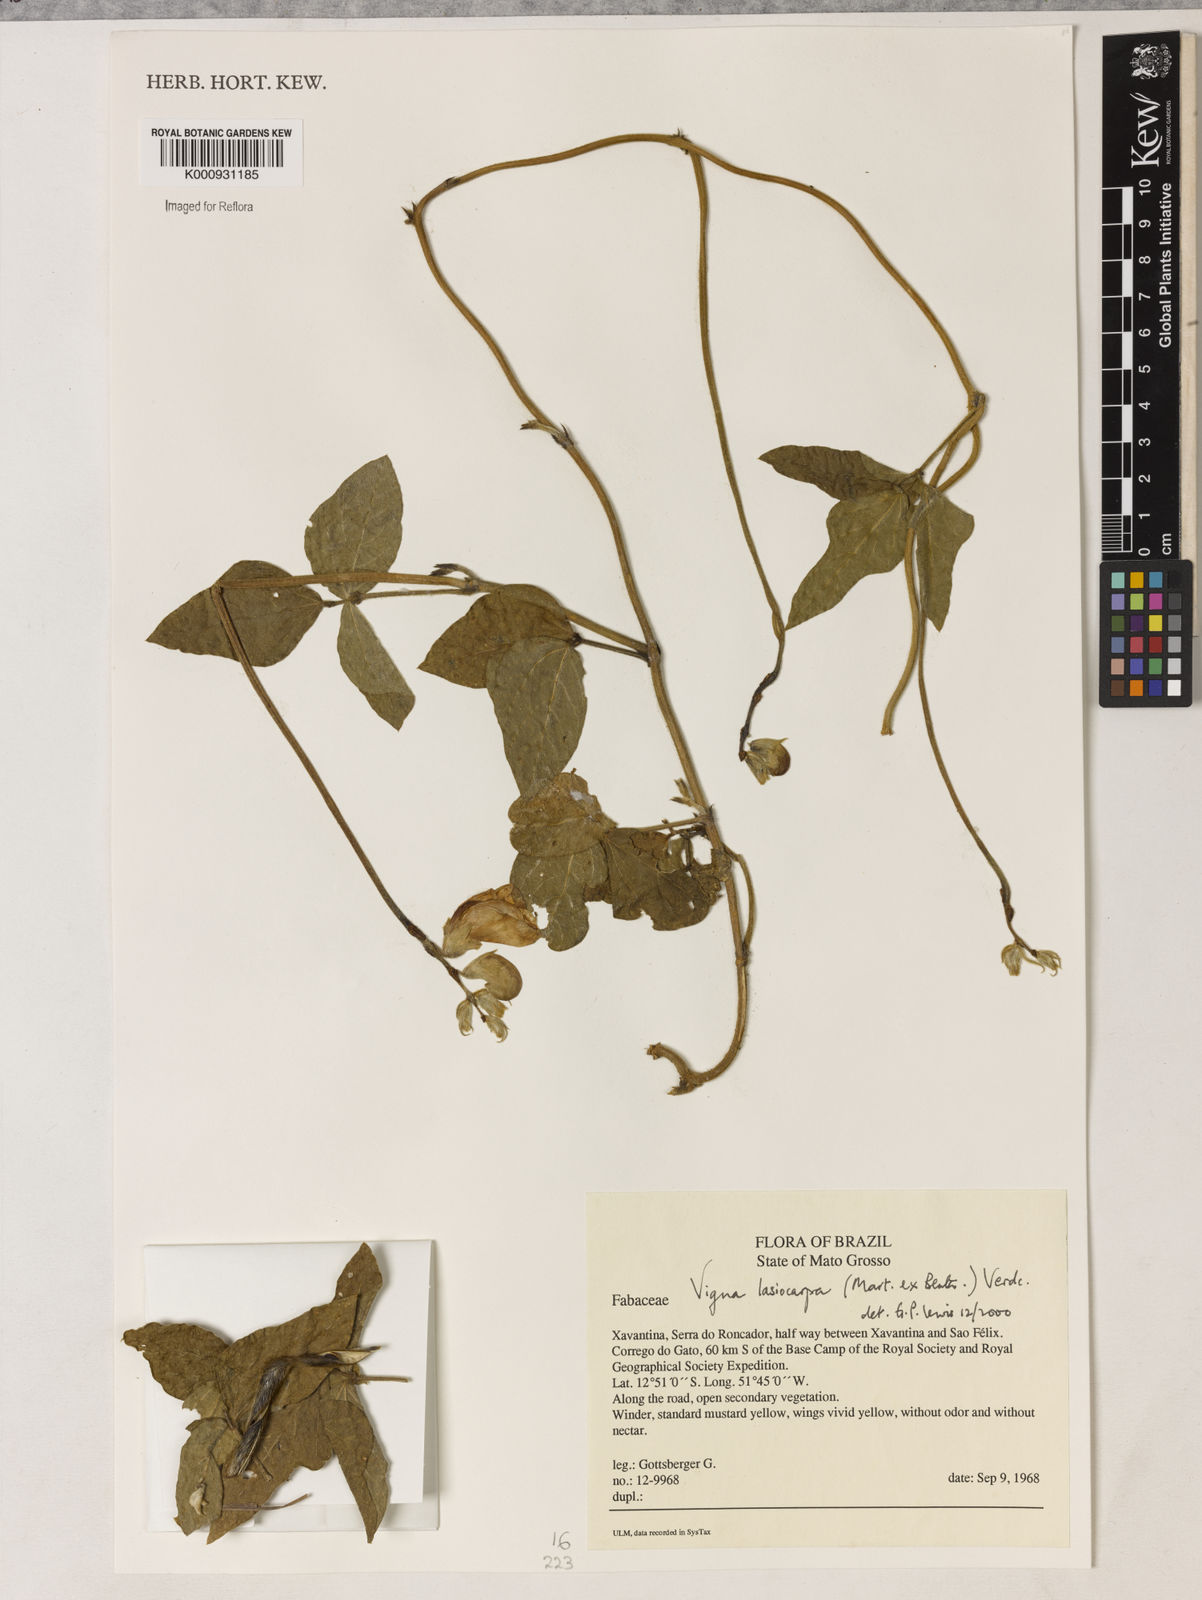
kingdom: Plantae
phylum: Tracheophyta
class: Magnoliopsida
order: Fabales
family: Fabaceae
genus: Vigna
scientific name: Vigna lasiocarpa
